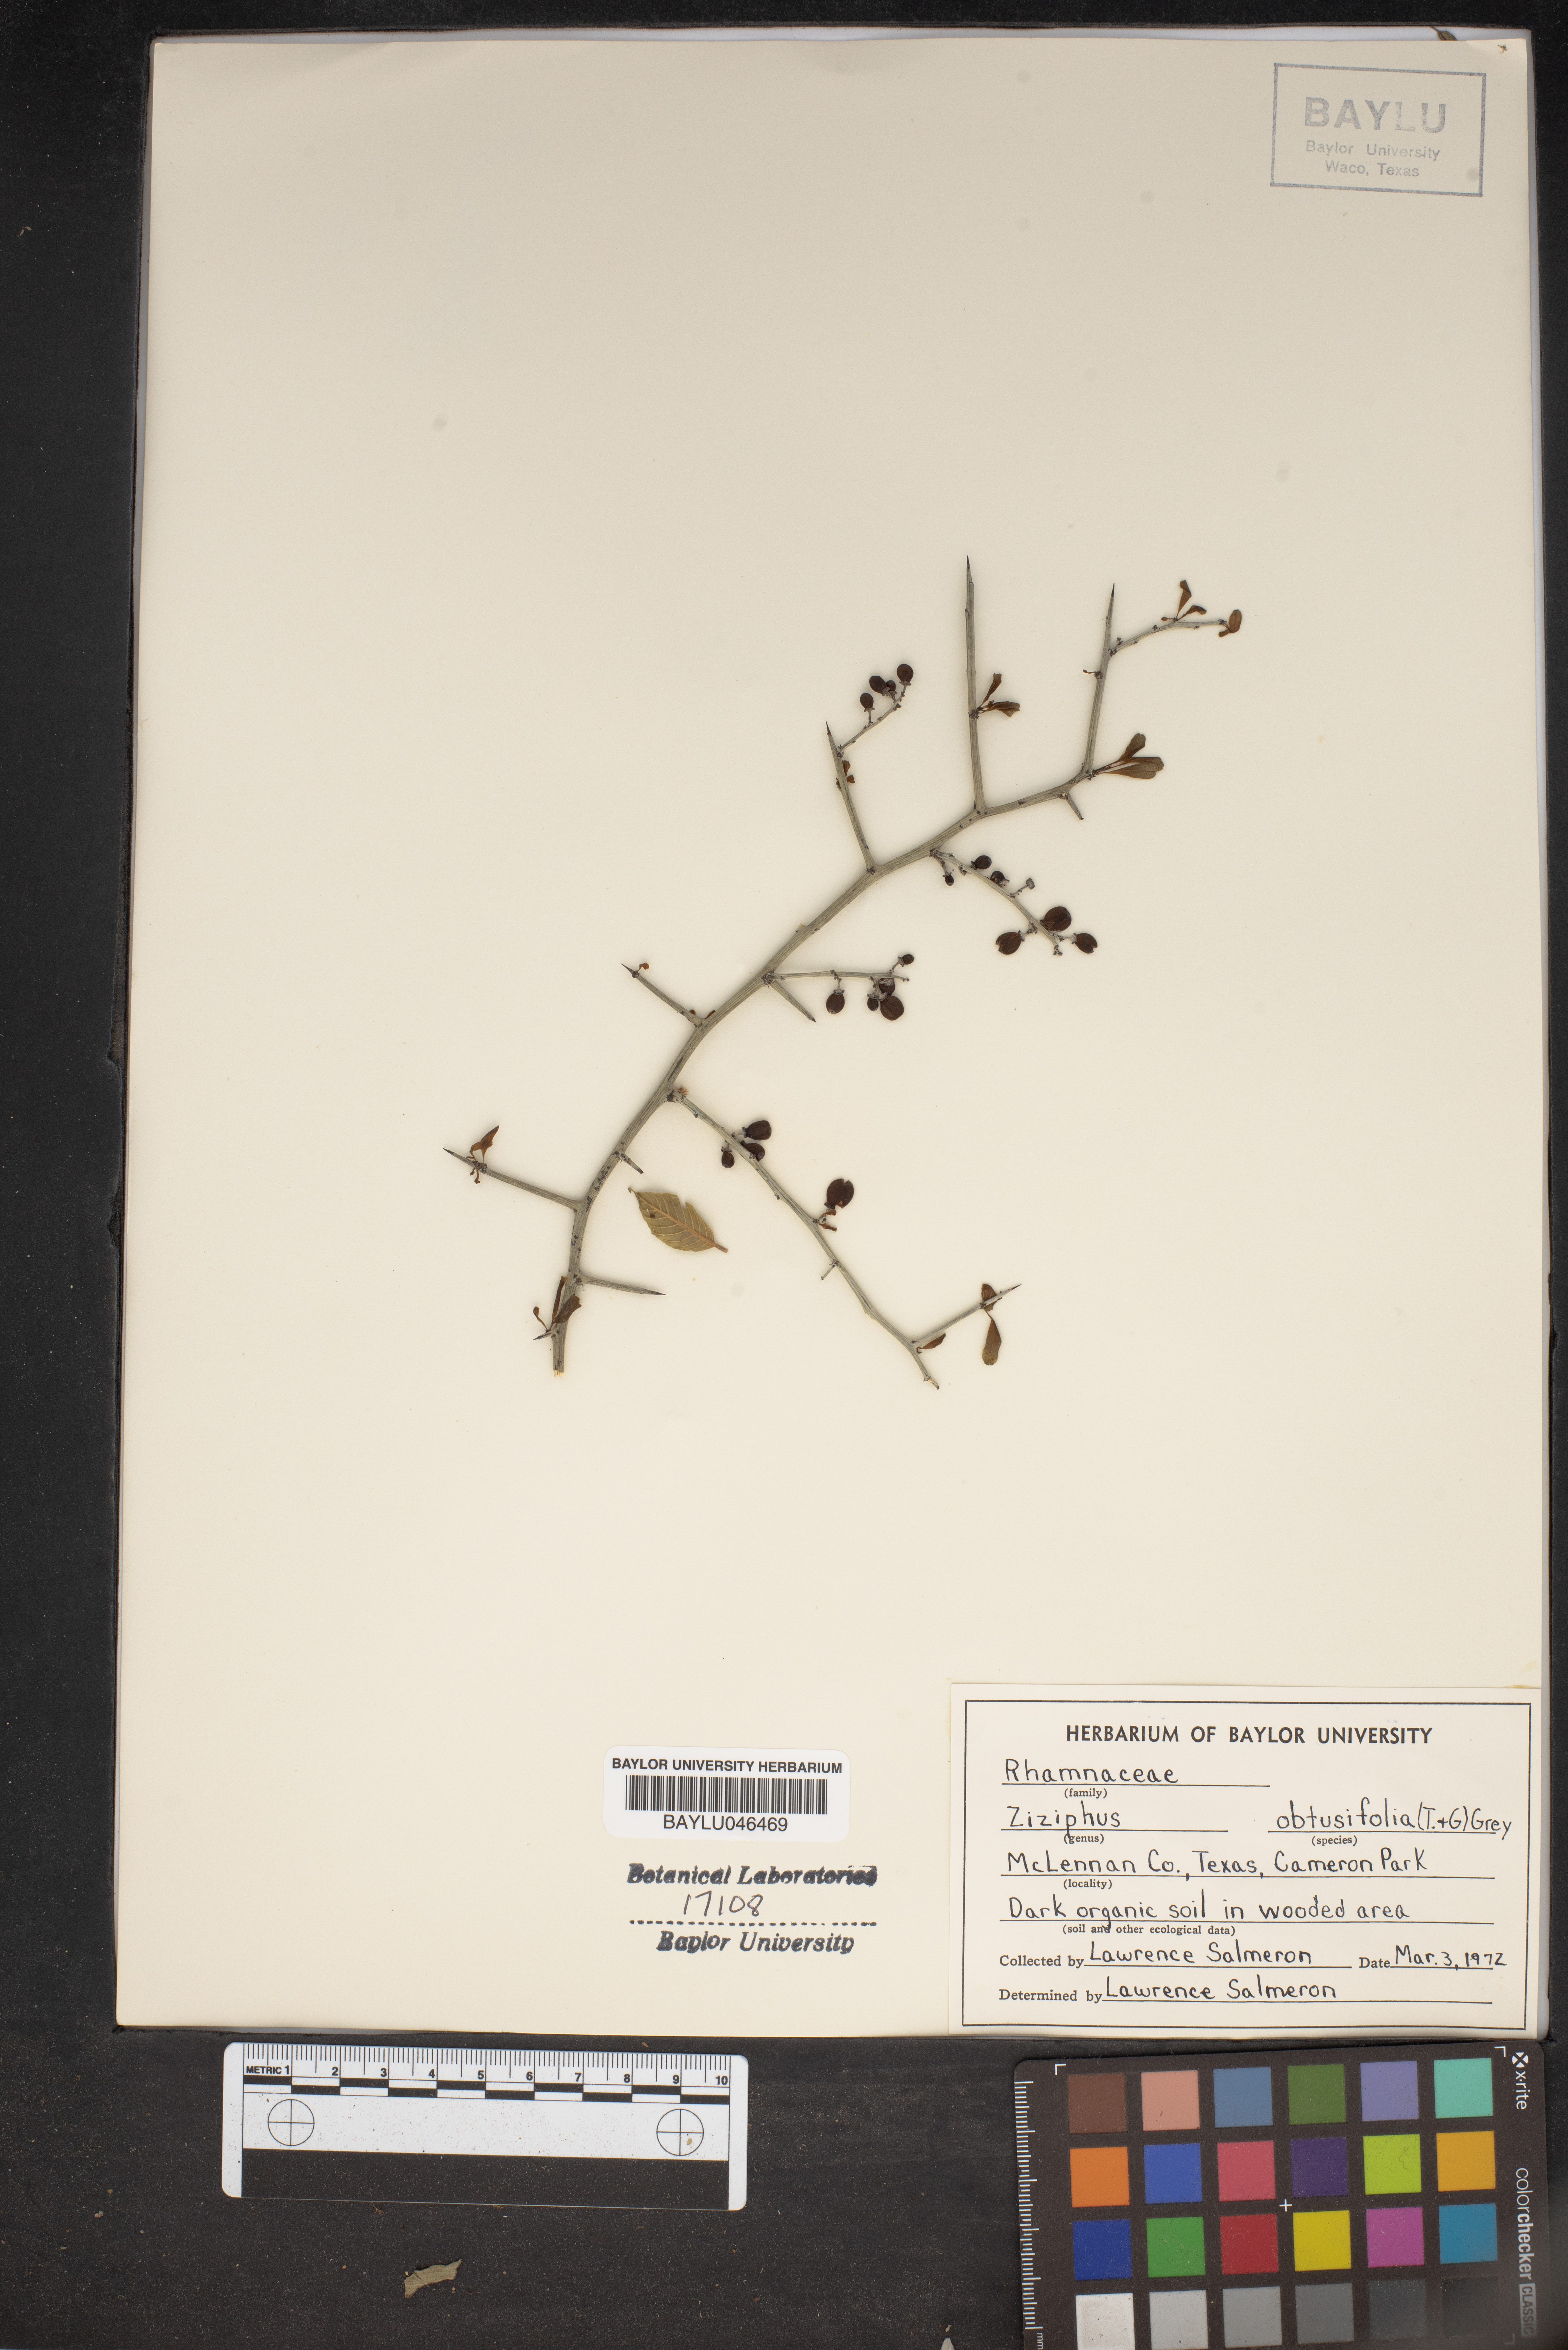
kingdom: Plantae
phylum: Tracheophyta
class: Magnoliopsida
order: Rosales
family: Rhamnaceae
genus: Sarcomphalus
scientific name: Sarcomphalus obtusifolius
